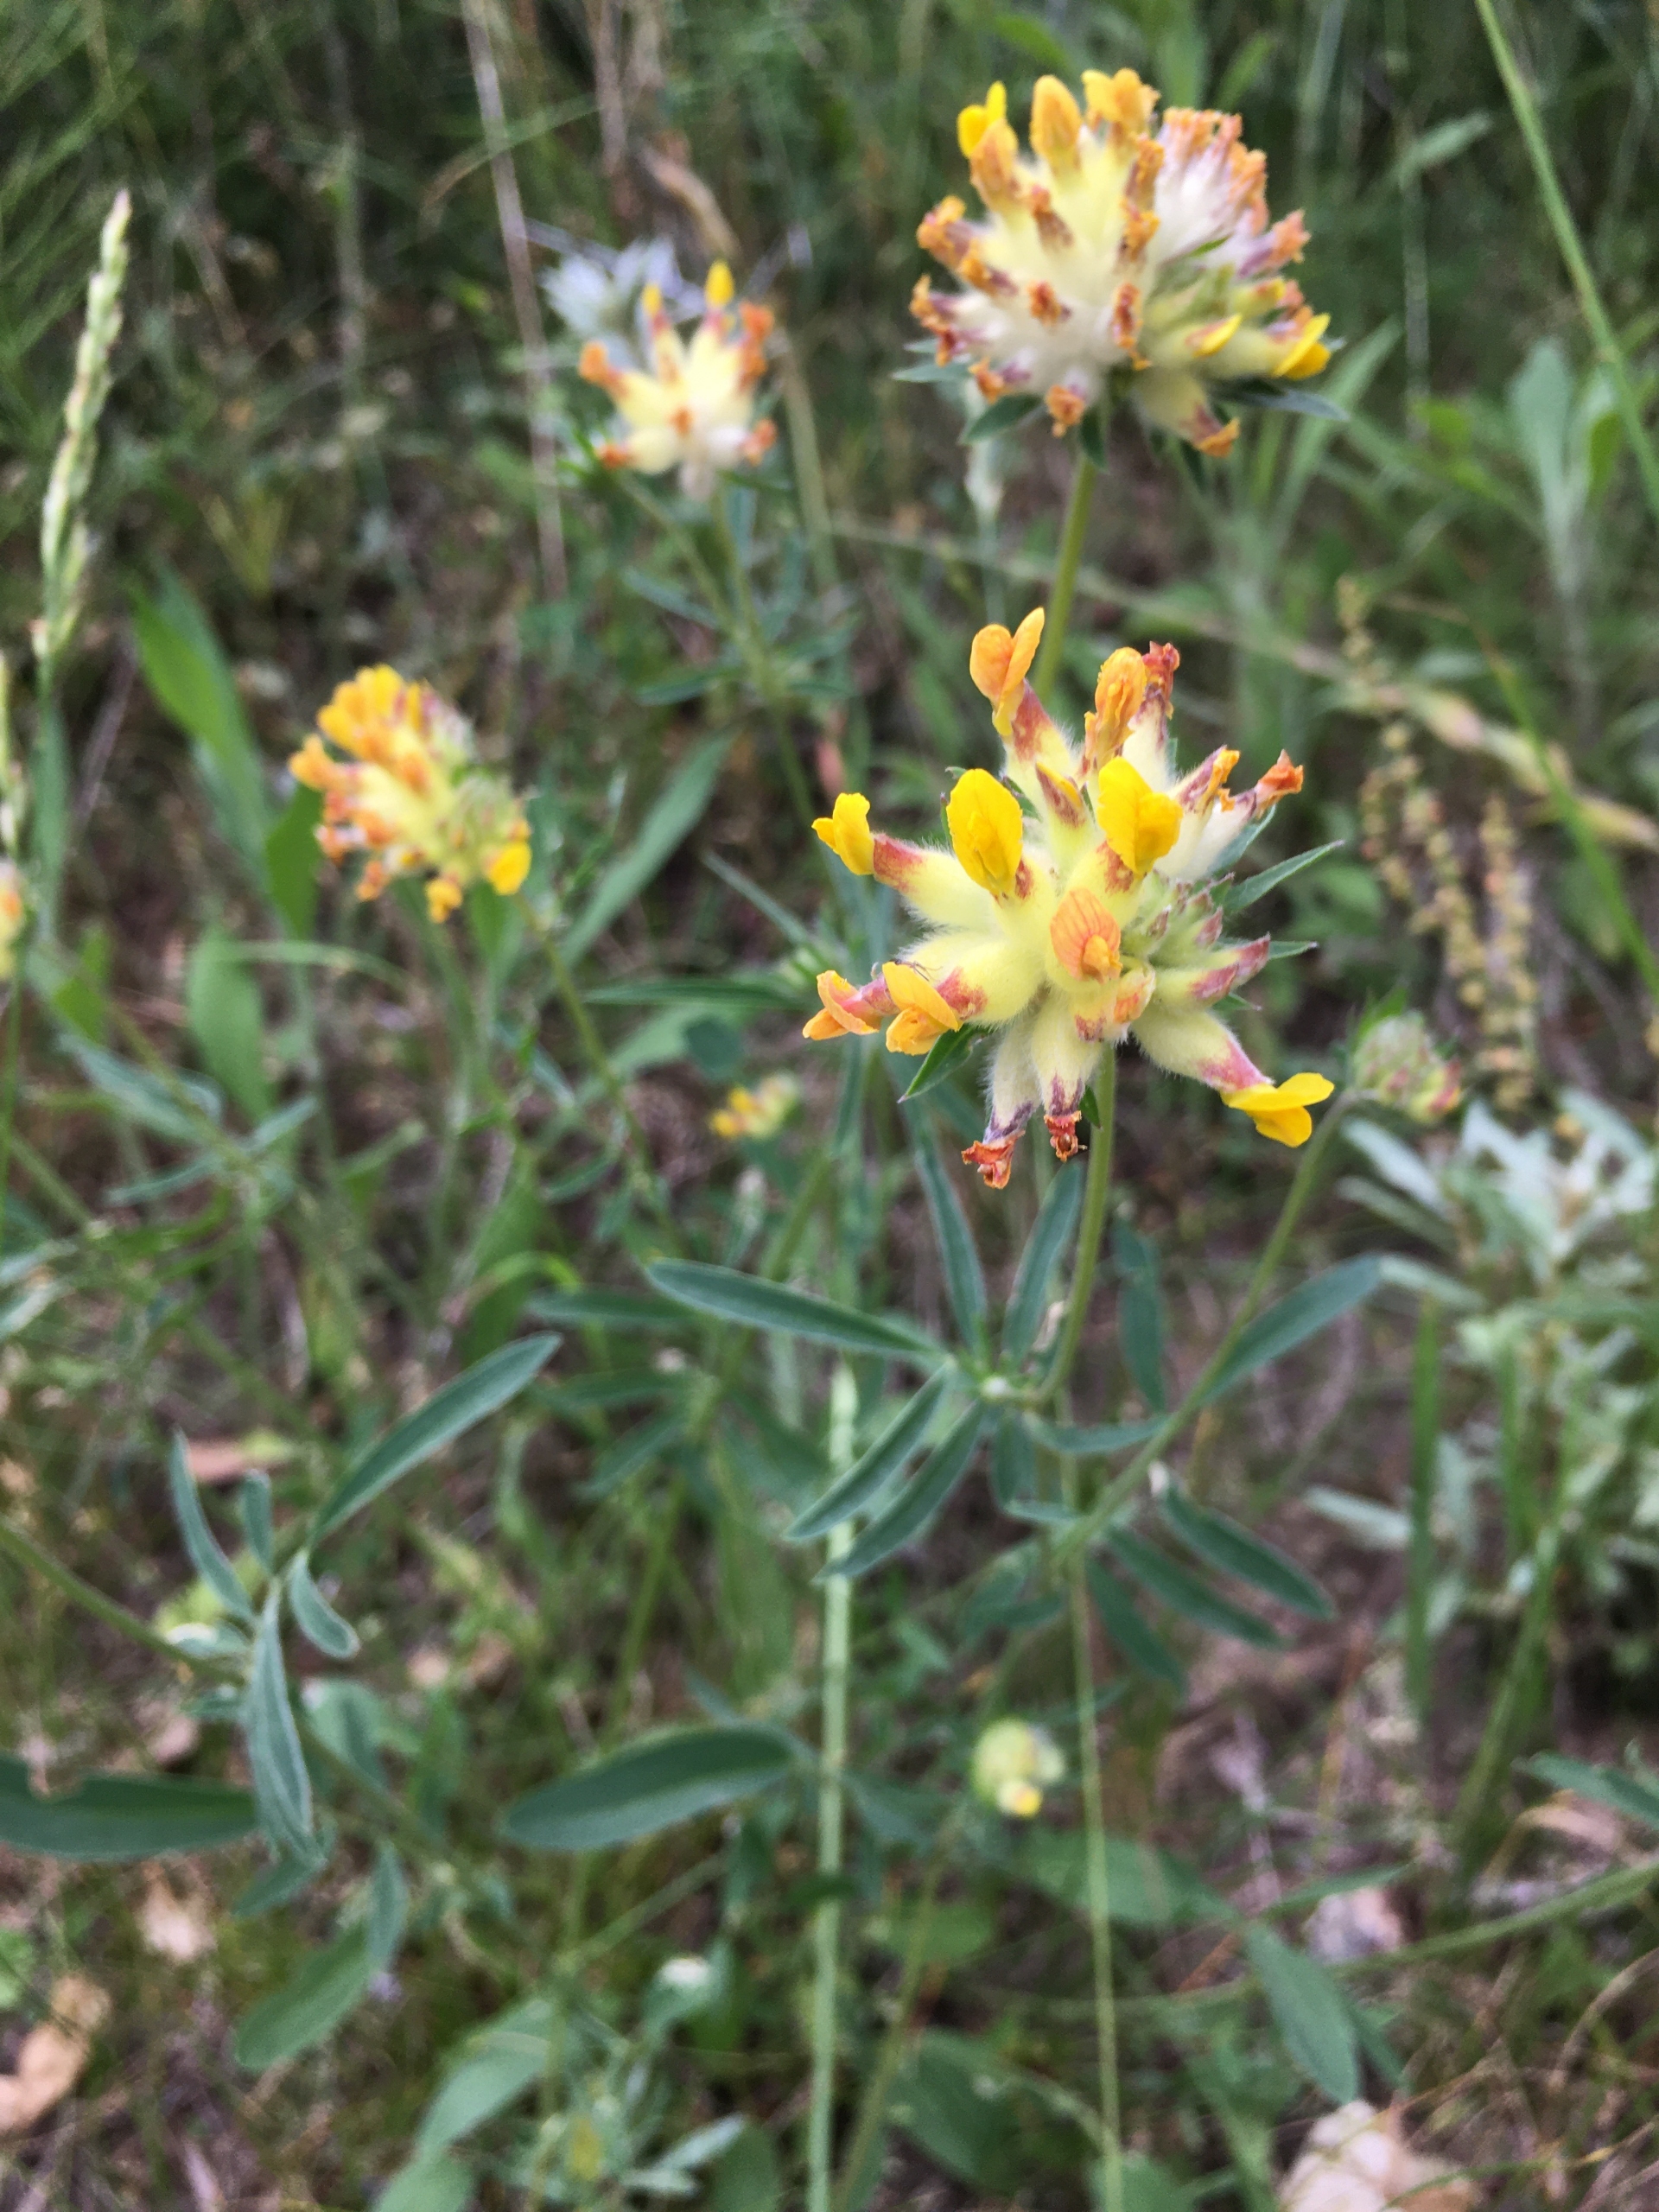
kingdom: Plantae
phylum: Tracheophyta
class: Magnoliopsida
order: Fabales
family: Fabaceae
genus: Anthyllis
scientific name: Anthyllis vulneraria
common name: Rundbælg
